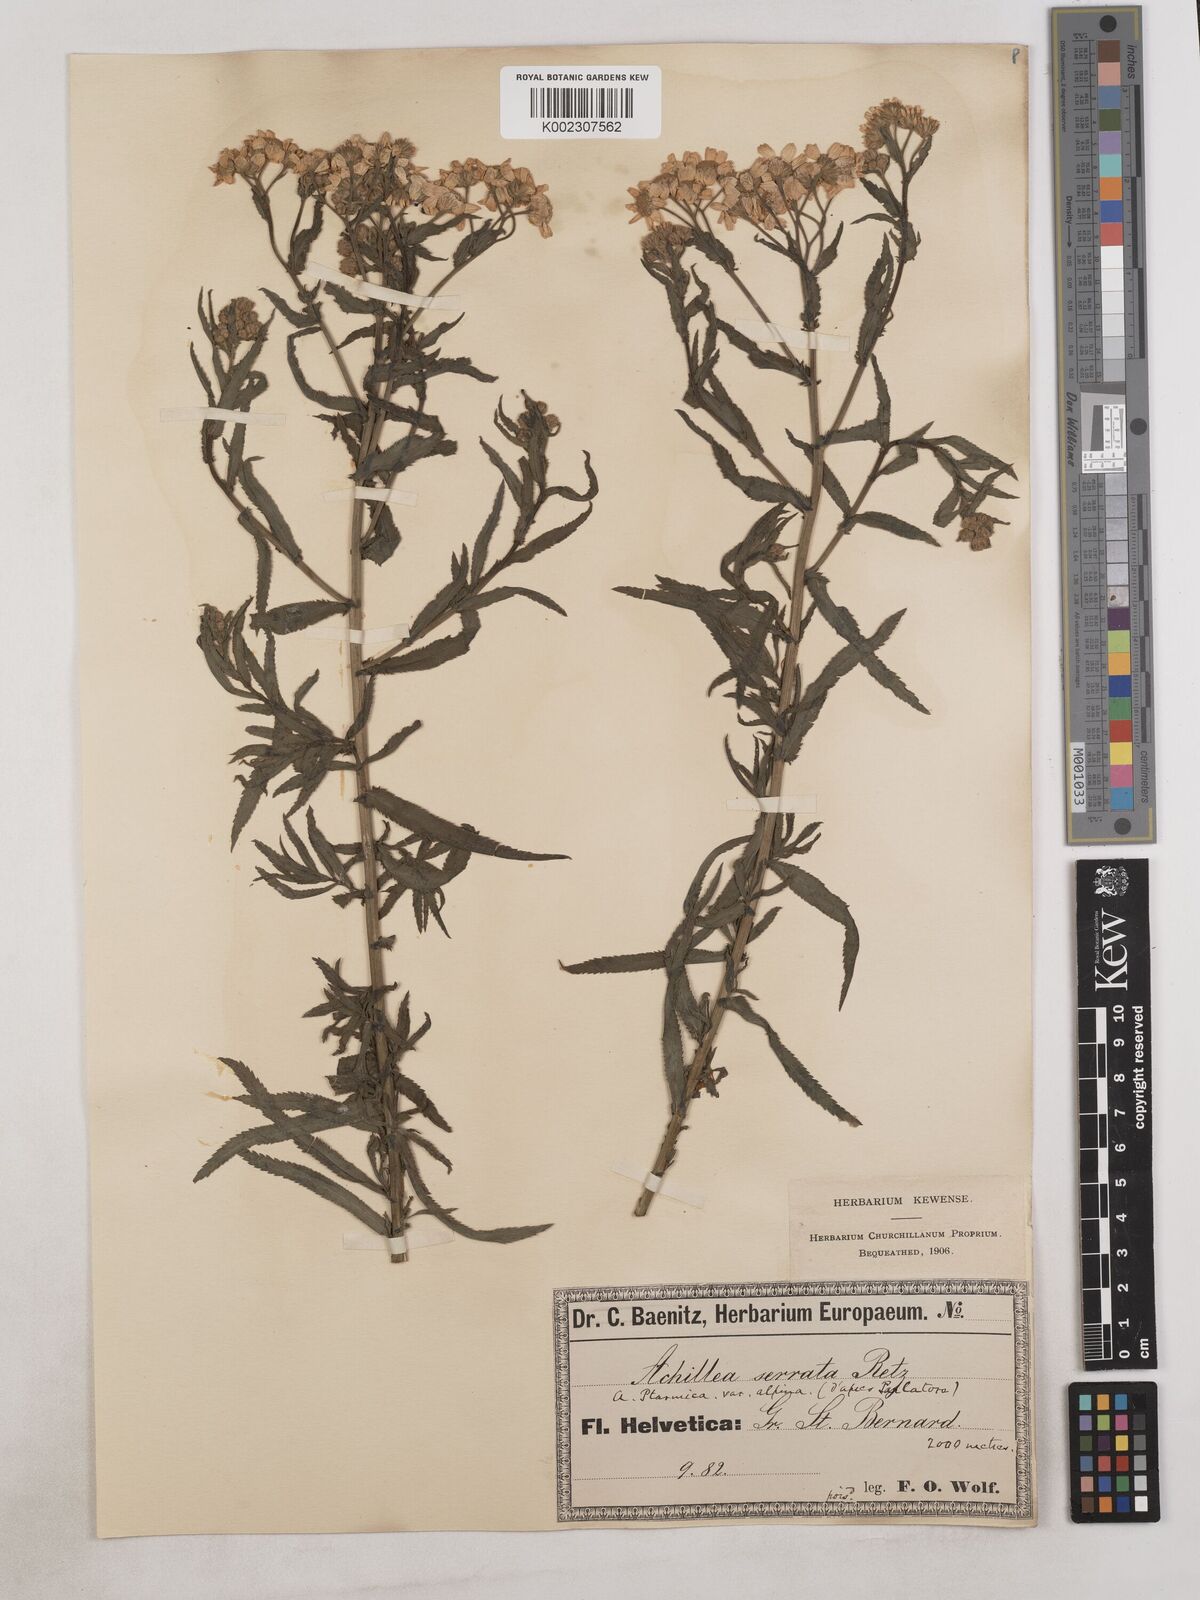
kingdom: Plantae
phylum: Tracheophyta
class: Magnoliopsida
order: Asterales
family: Asteraceae
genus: Achillea
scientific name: Achillea serrata
